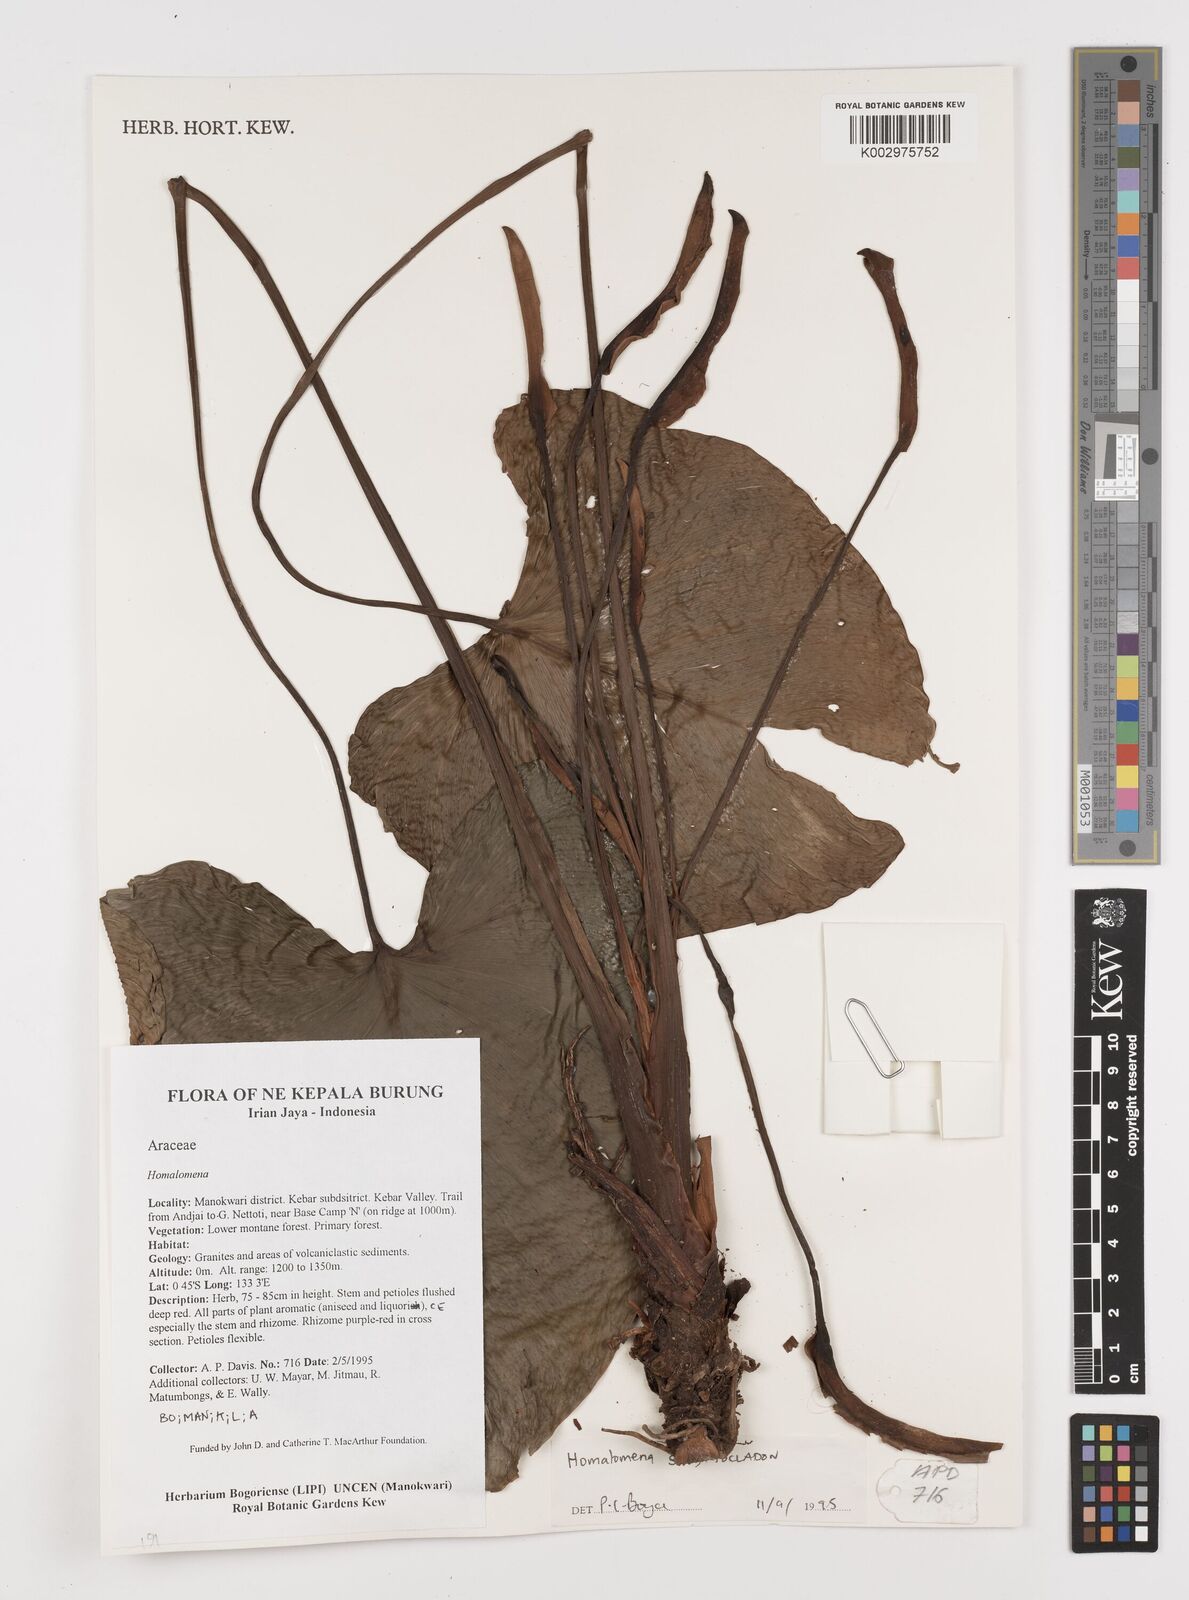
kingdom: Plantae
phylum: Tracheophyta
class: Liliopsida
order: Alismatales
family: Araceae
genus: Homalomena
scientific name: Homalomena
